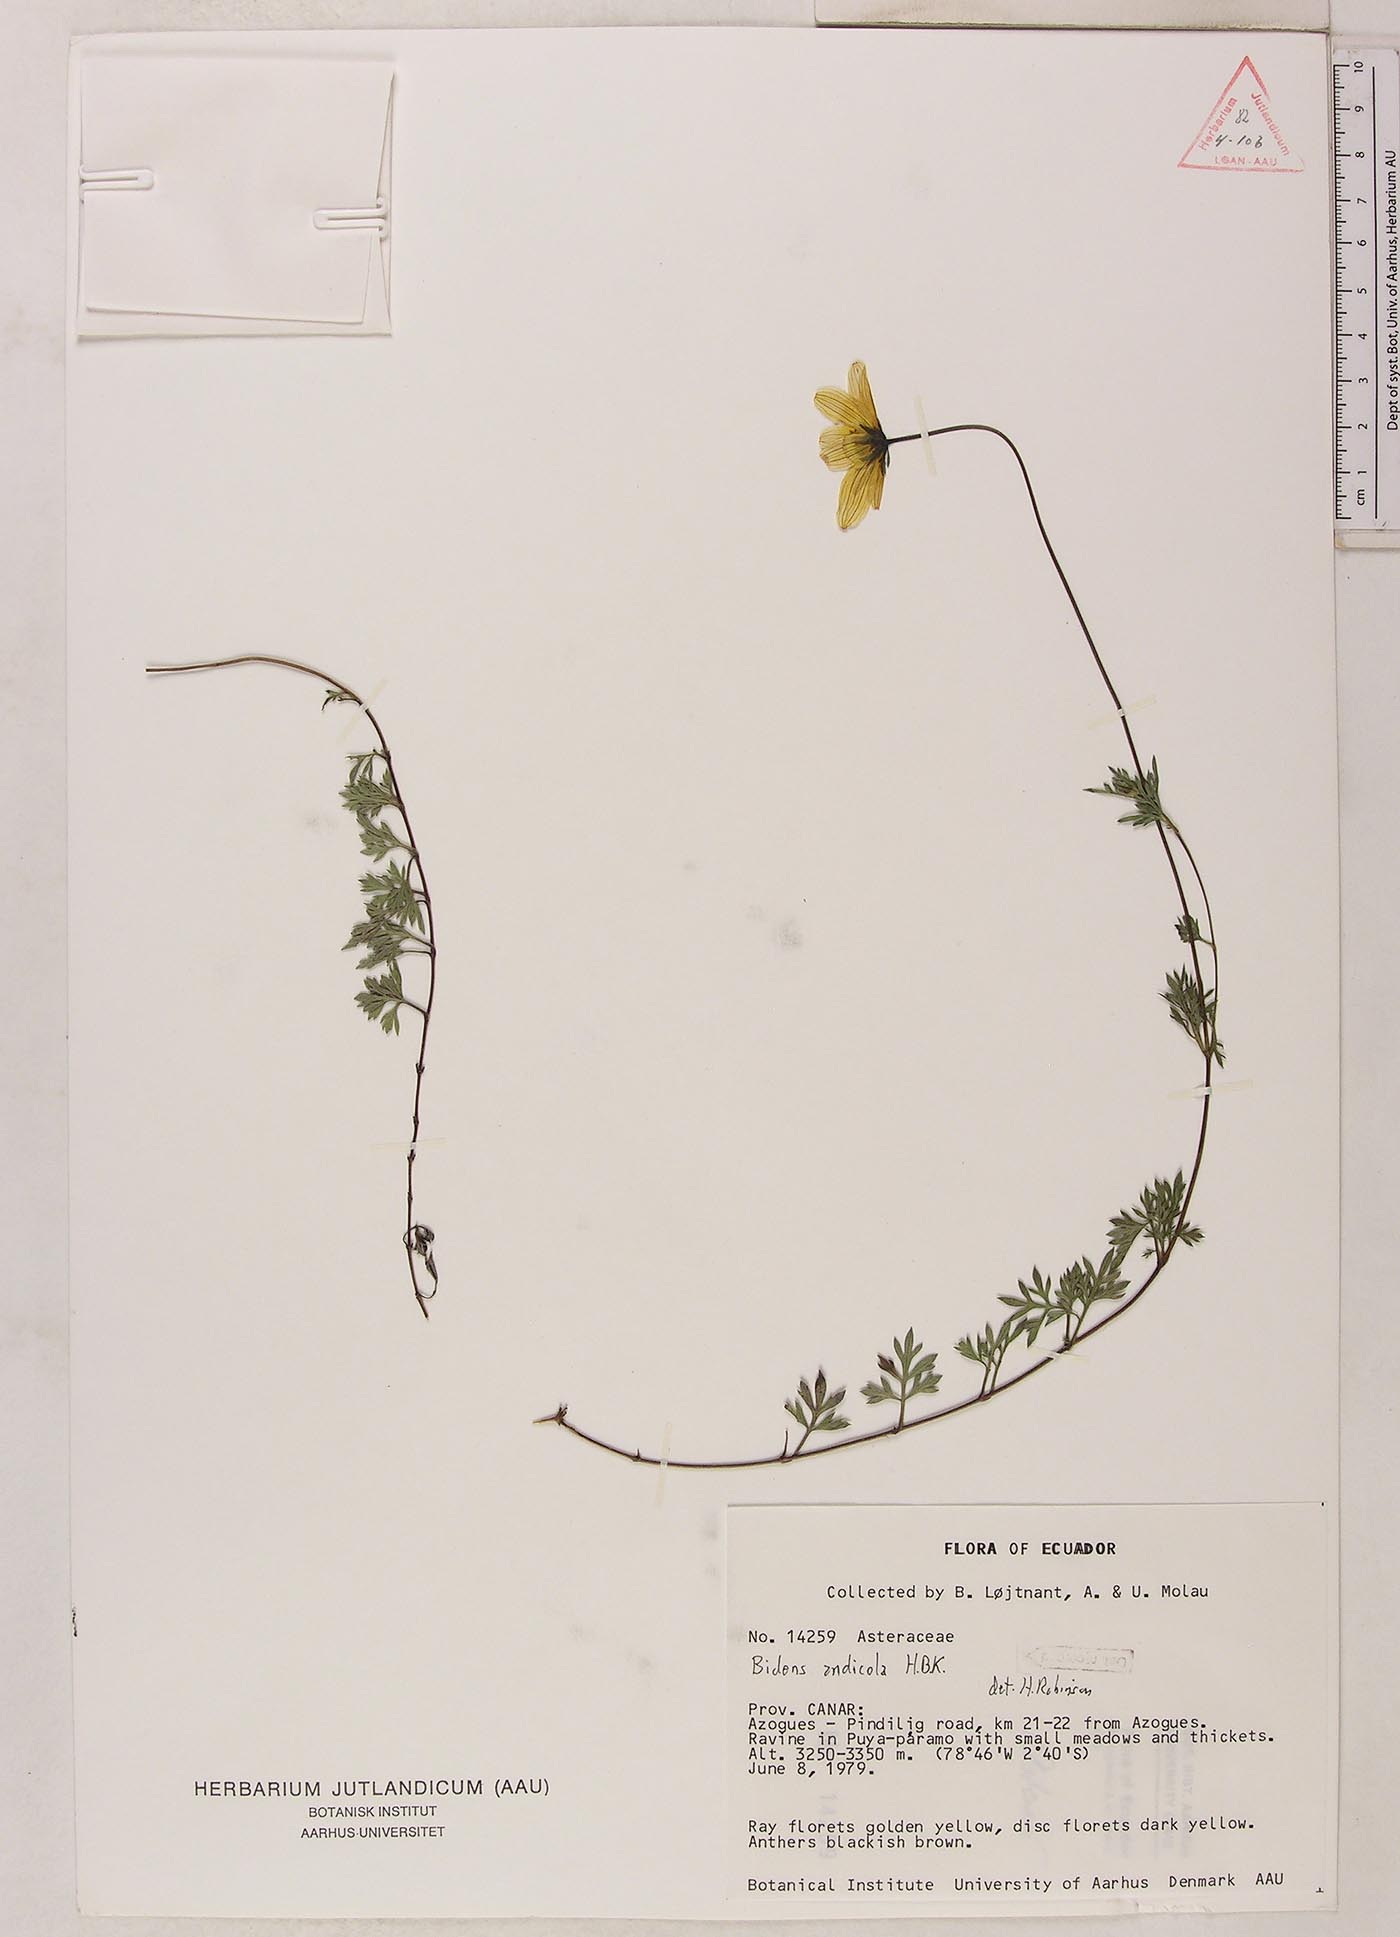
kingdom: Plantae
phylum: Tracheophyta
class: Magnoliopsida
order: Asterales
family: Asteraceae
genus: Bidens
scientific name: Bidens andicola
